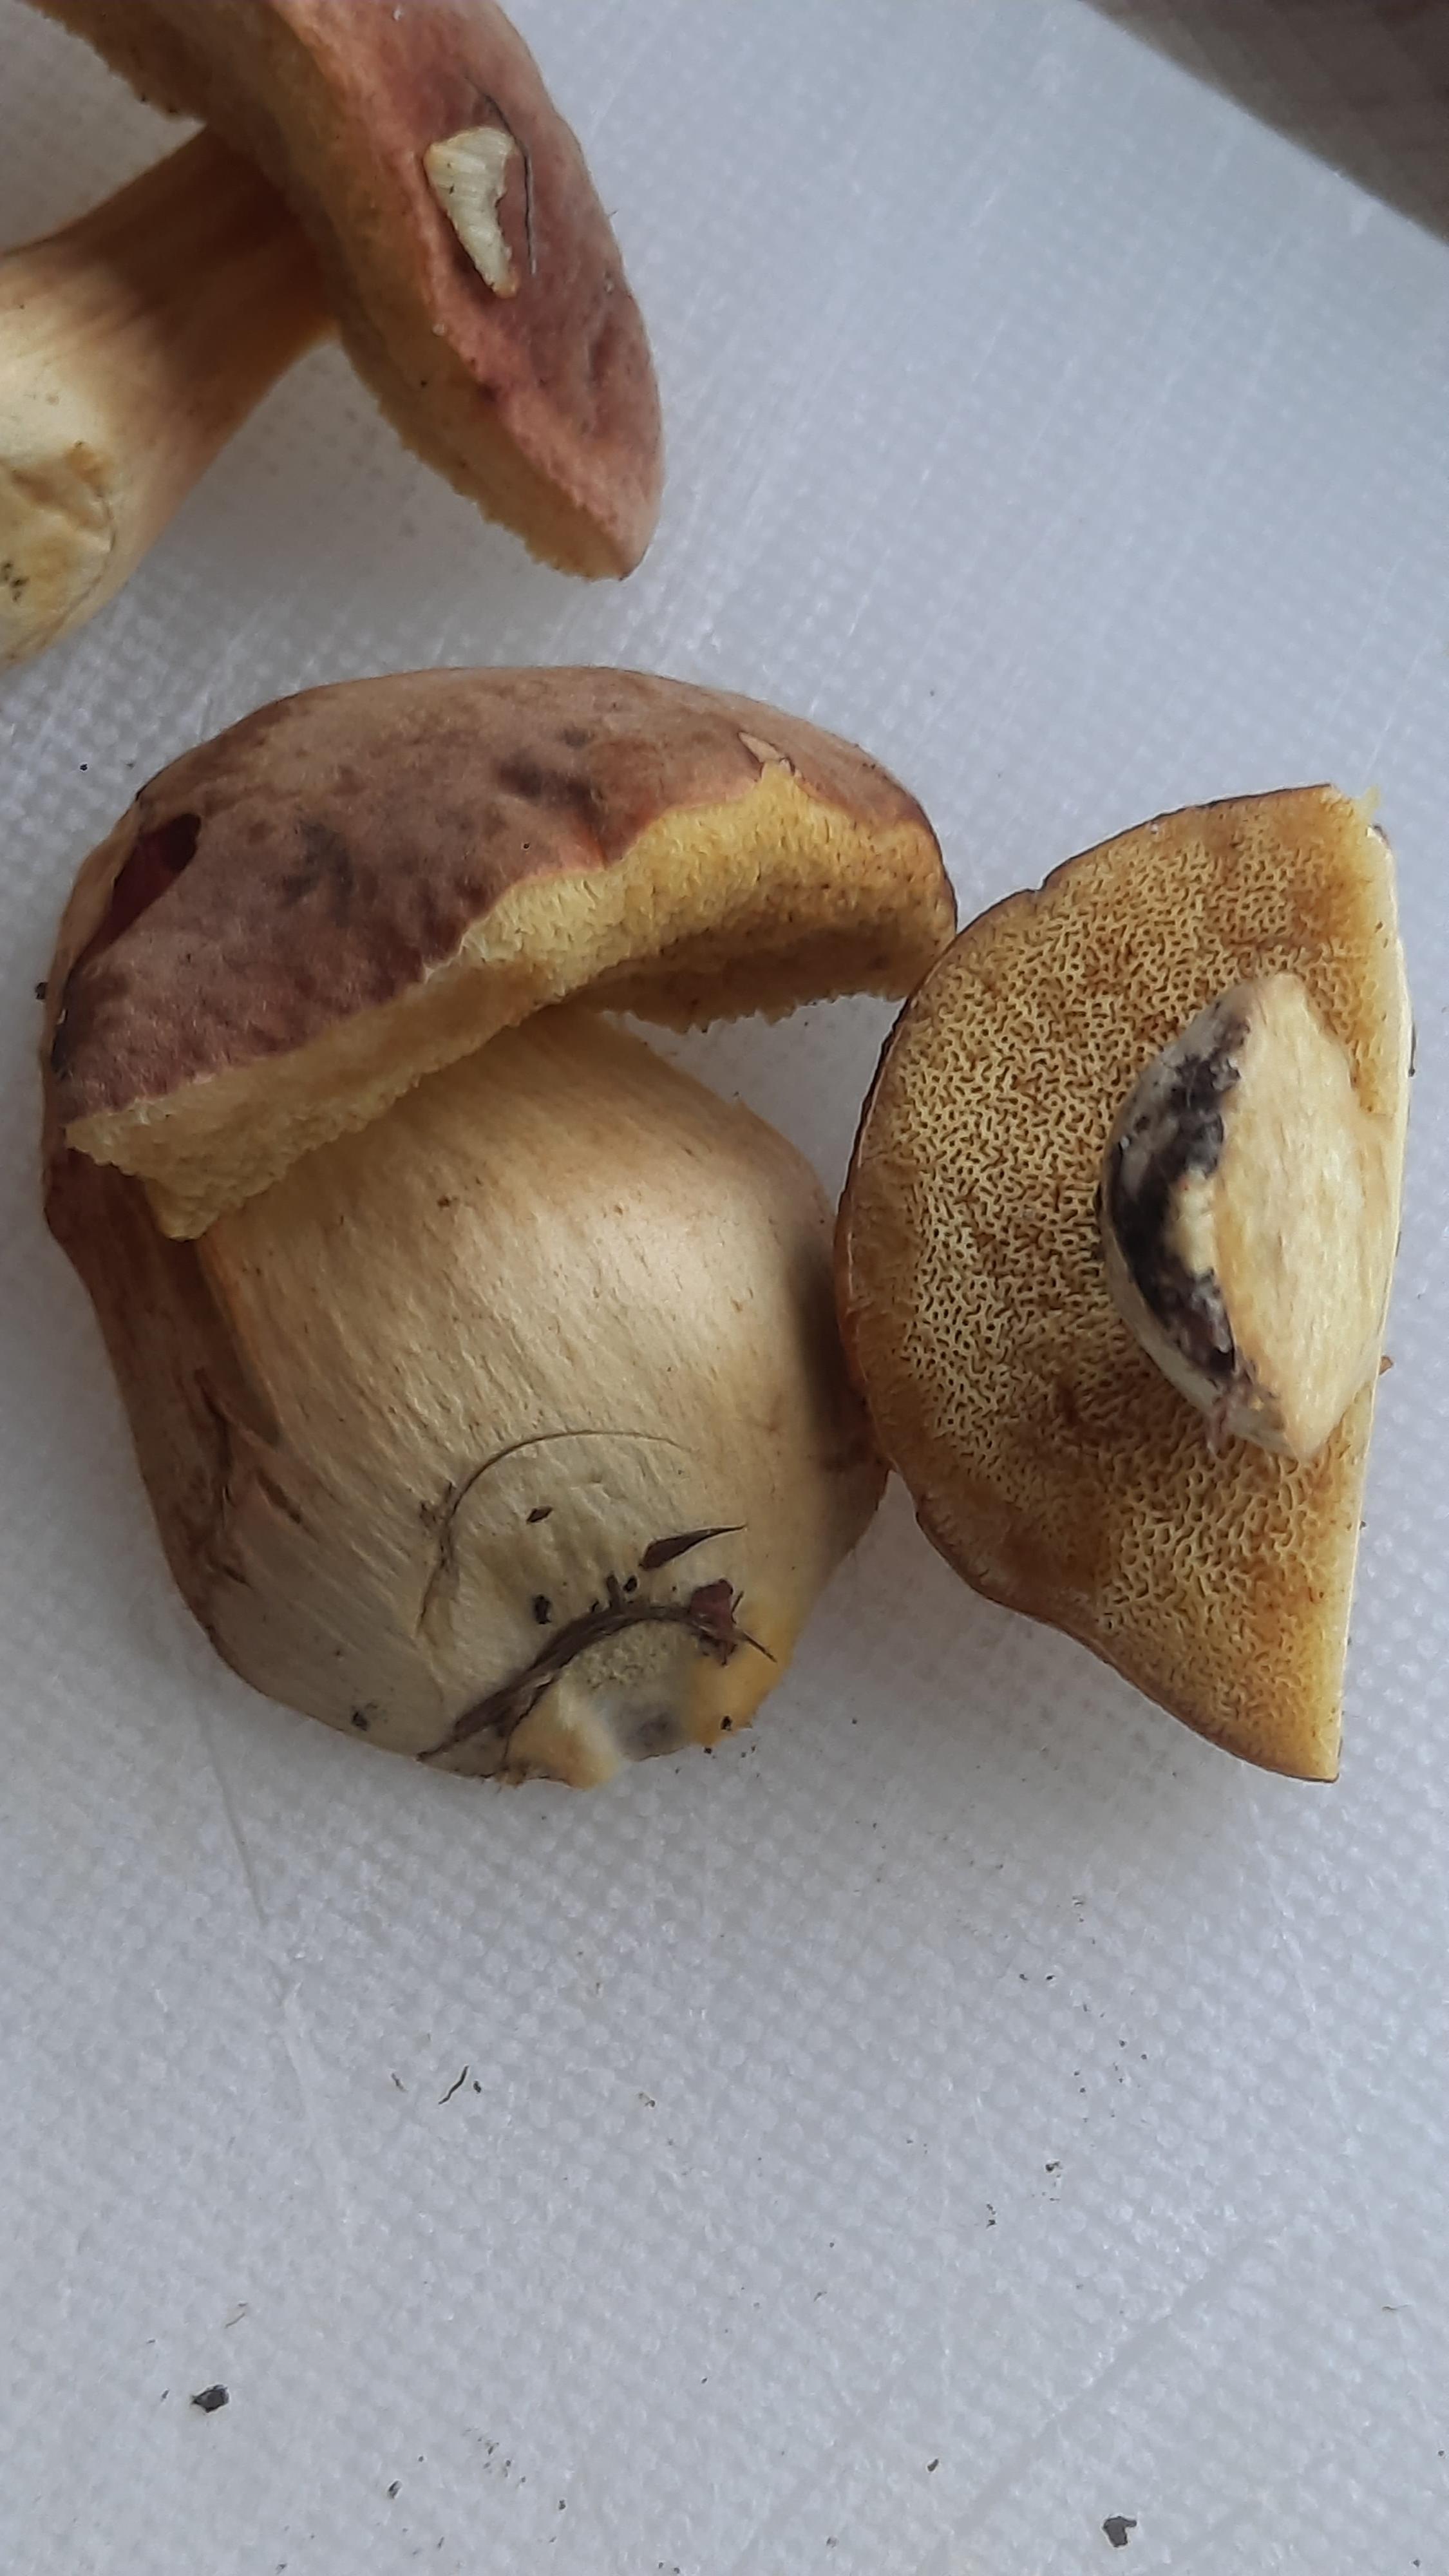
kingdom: Fungi
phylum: Basidiomycota
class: Agaricomycetes
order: Boletales
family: Boletaceae
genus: Hortiboletus
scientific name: Hortiboletus engelii
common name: fersken-rørhat
